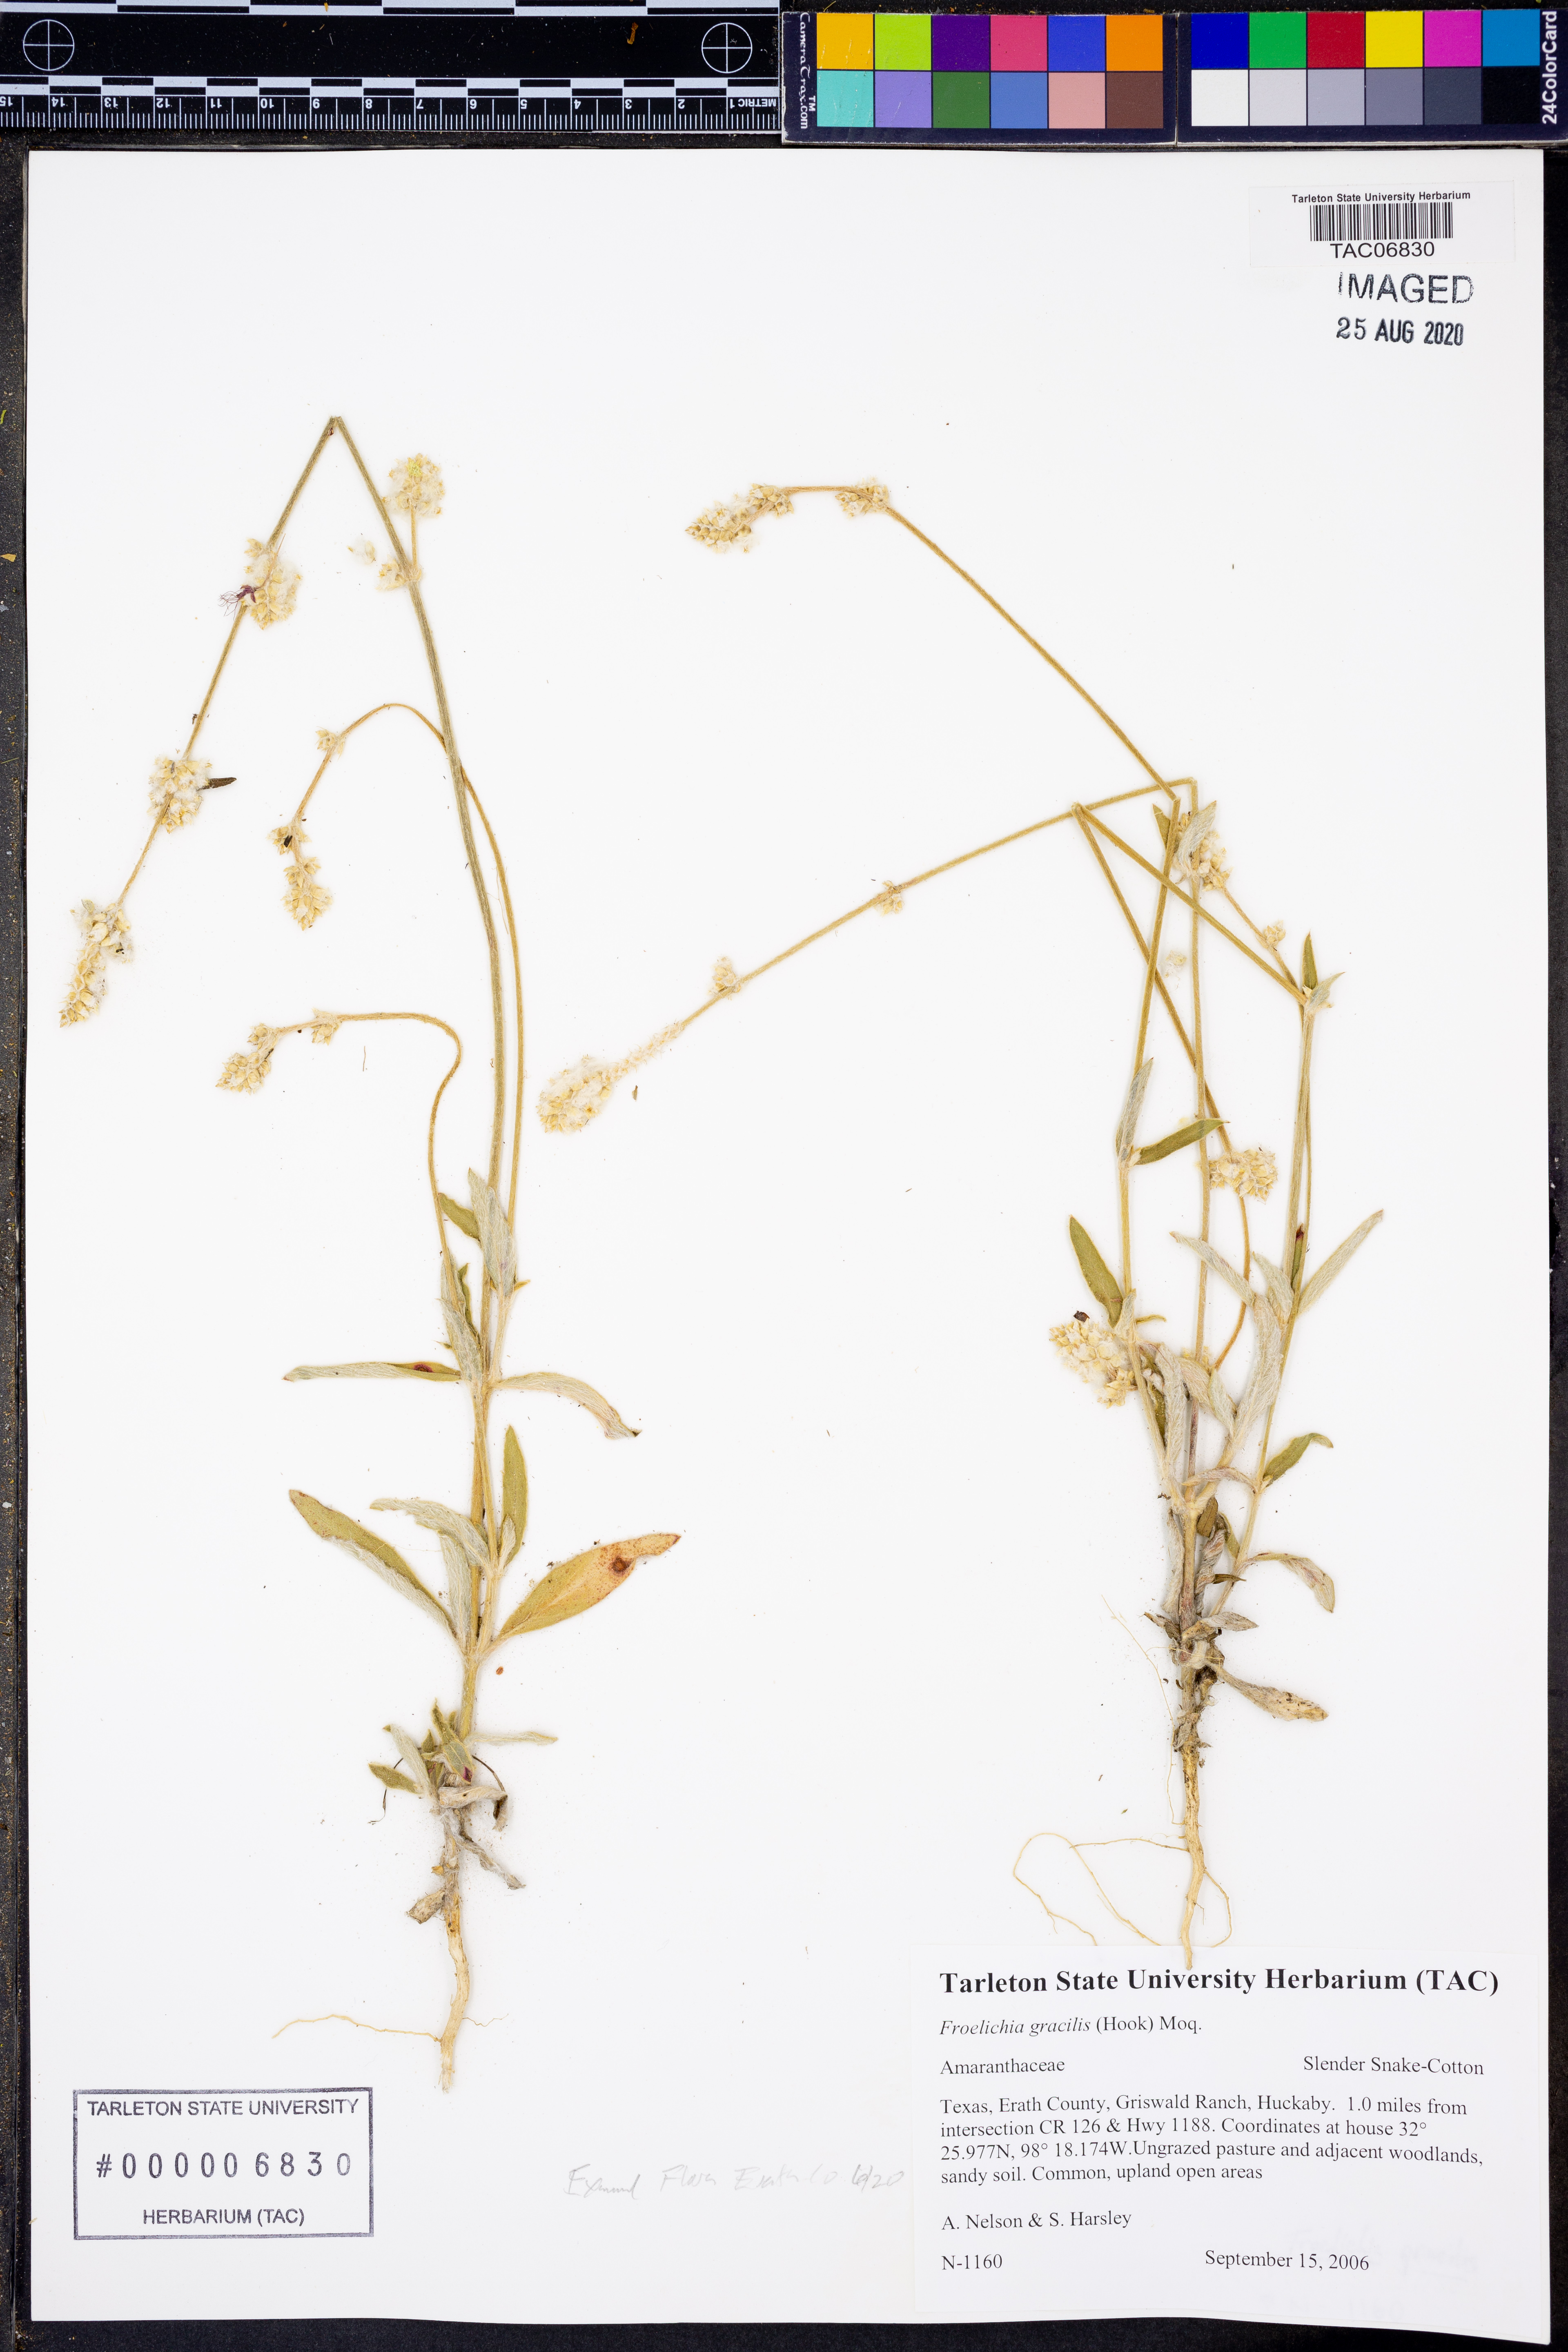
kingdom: Plantae
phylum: Tracheophyta
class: Magnoliopsida
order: Caryophyllales
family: Amaranthaceae
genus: Froelichia
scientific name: Froelichia gracilis
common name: Slender cottonweed
